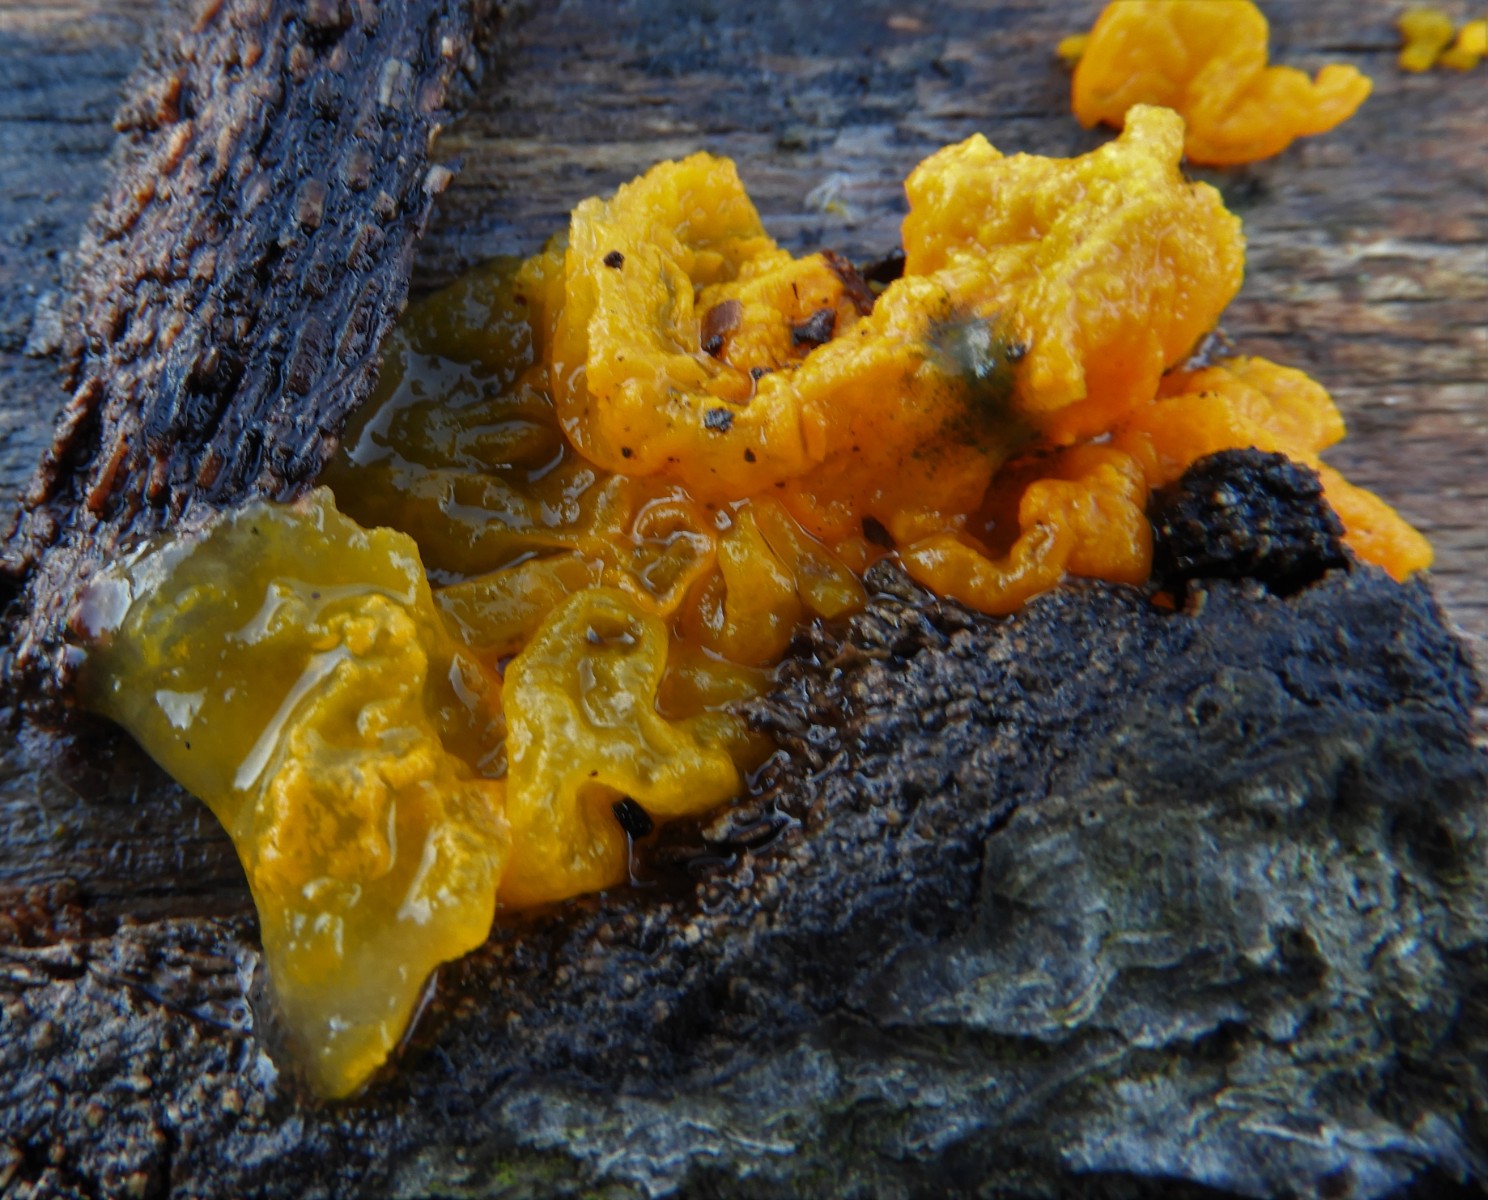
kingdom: Fungi
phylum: Basidiomycota
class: Tremellomycetes
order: Tremellales
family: Tremellaceae
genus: Tremella
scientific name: Tremella mesenterica
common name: gul bævresvamp
